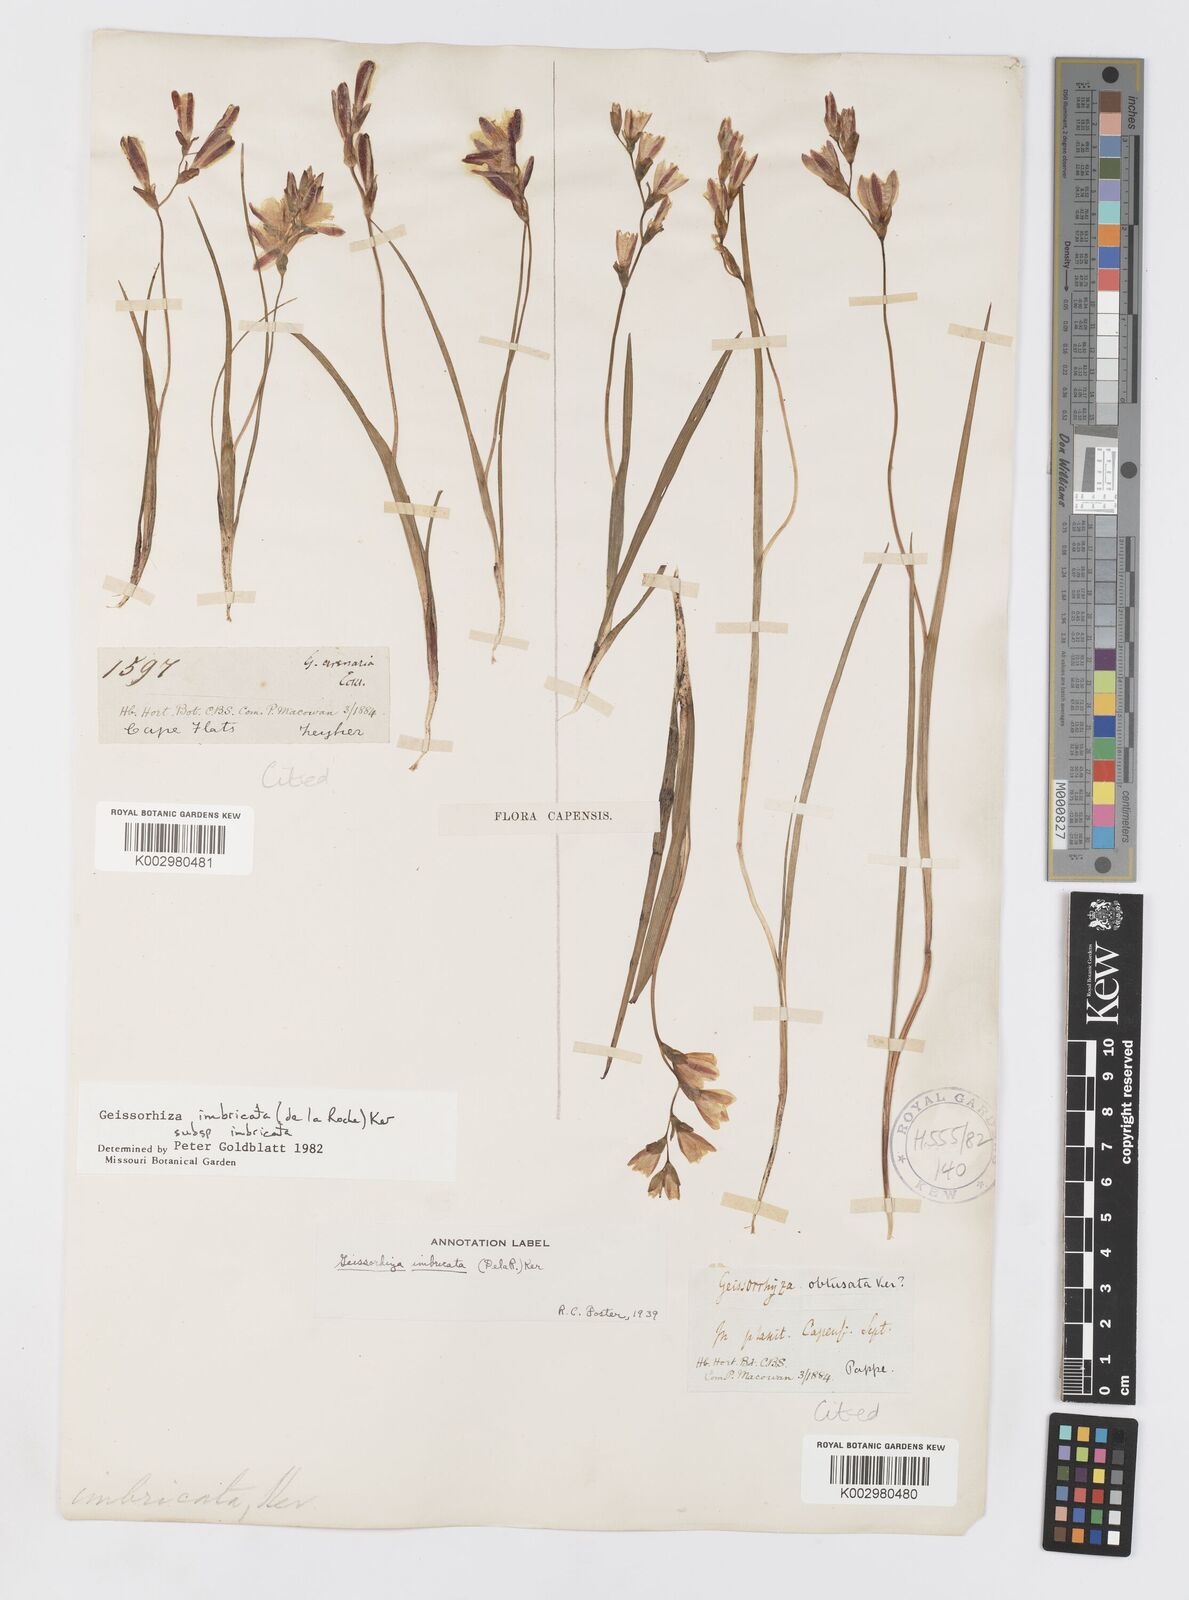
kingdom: Plantae
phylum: Tracheophyta
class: Liliopsida
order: Asparagales
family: Iridaceae
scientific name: Iridaceae
